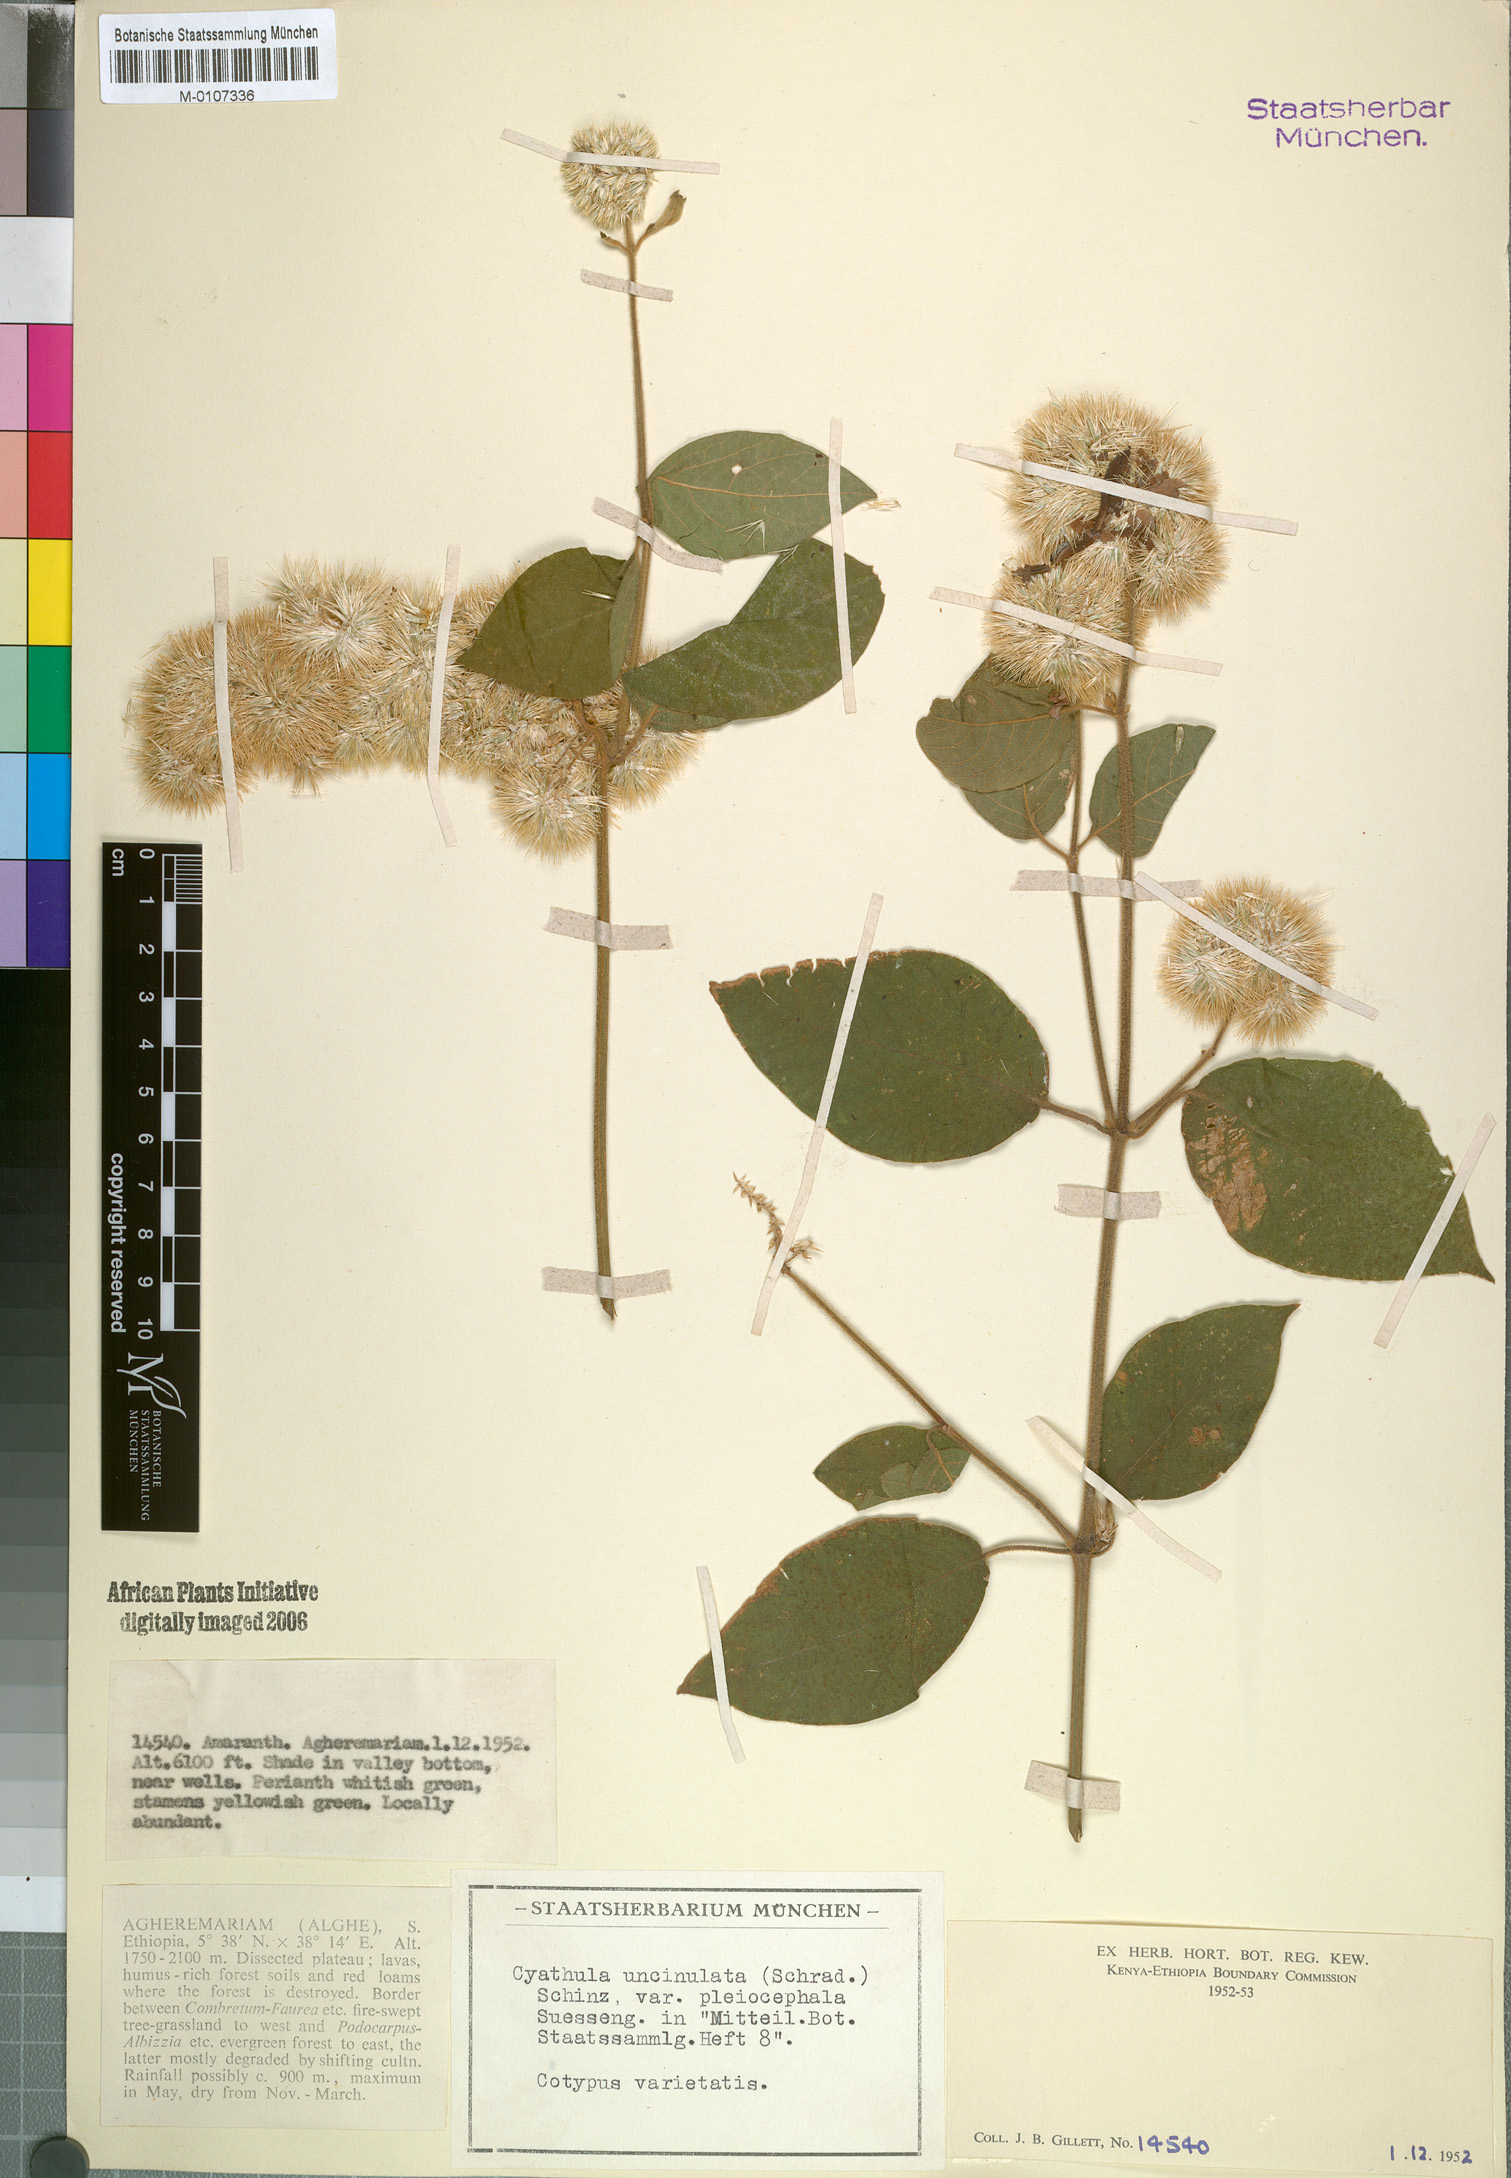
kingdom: Plantae
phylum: Tracheophyta
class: Magnoliopsida
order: Caryophyllales
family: Amaranthaceae
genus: Cyathula
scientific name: Cyathula uncinulata
